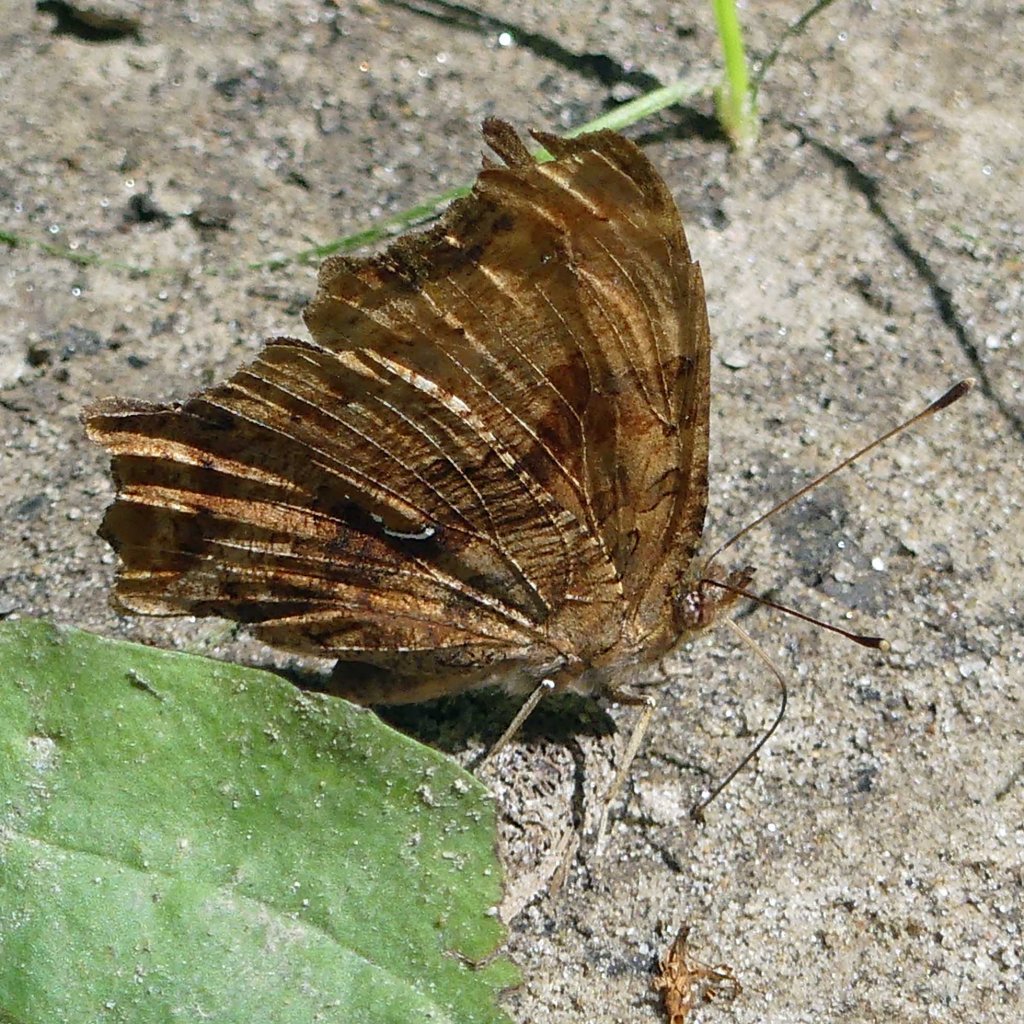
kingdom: Animalia
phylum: Arthropoda
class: Insecta
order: Lepidoptera
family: Nymphalidae
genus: Polygonia
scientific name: Polygonia interrogationis
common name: Question Mark
